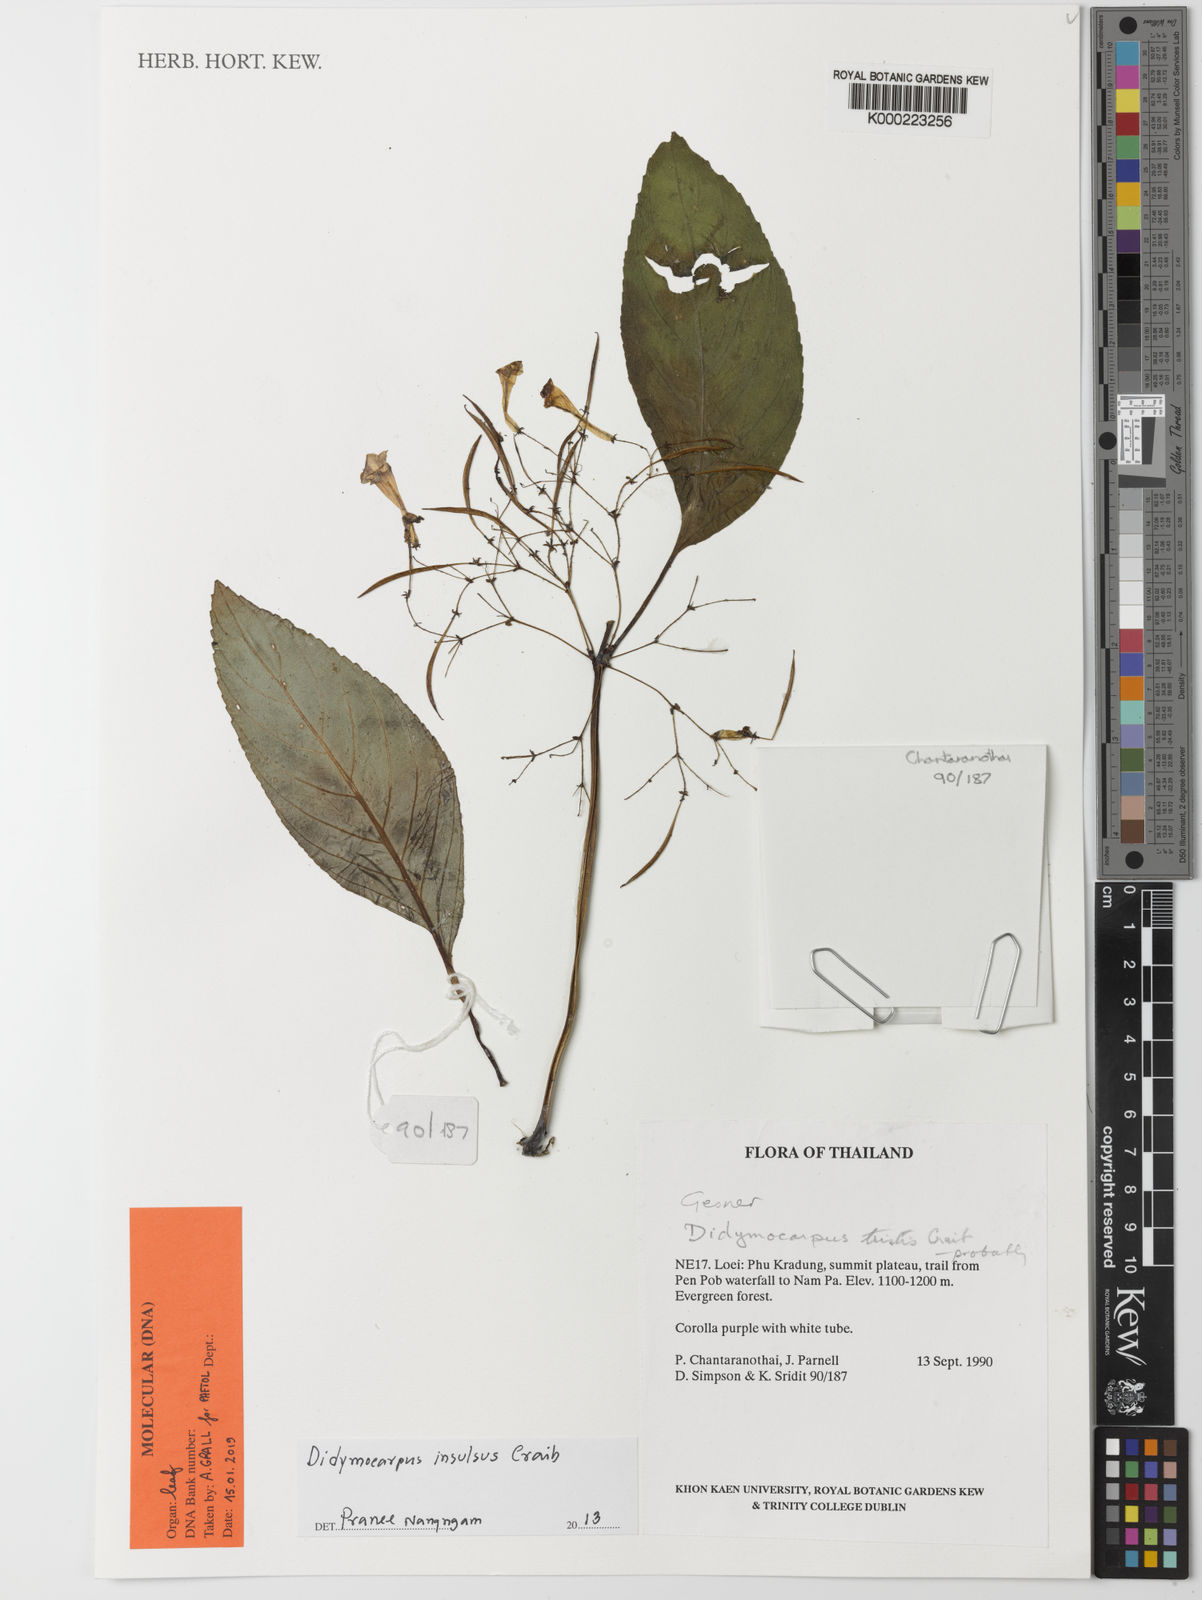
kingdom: Plantae
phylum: Tracheophyta
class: Magnoliopsida
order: Lamiales
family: Gesneriaceae
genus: Didymocarpus
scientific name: Didymocarpus insulsus
